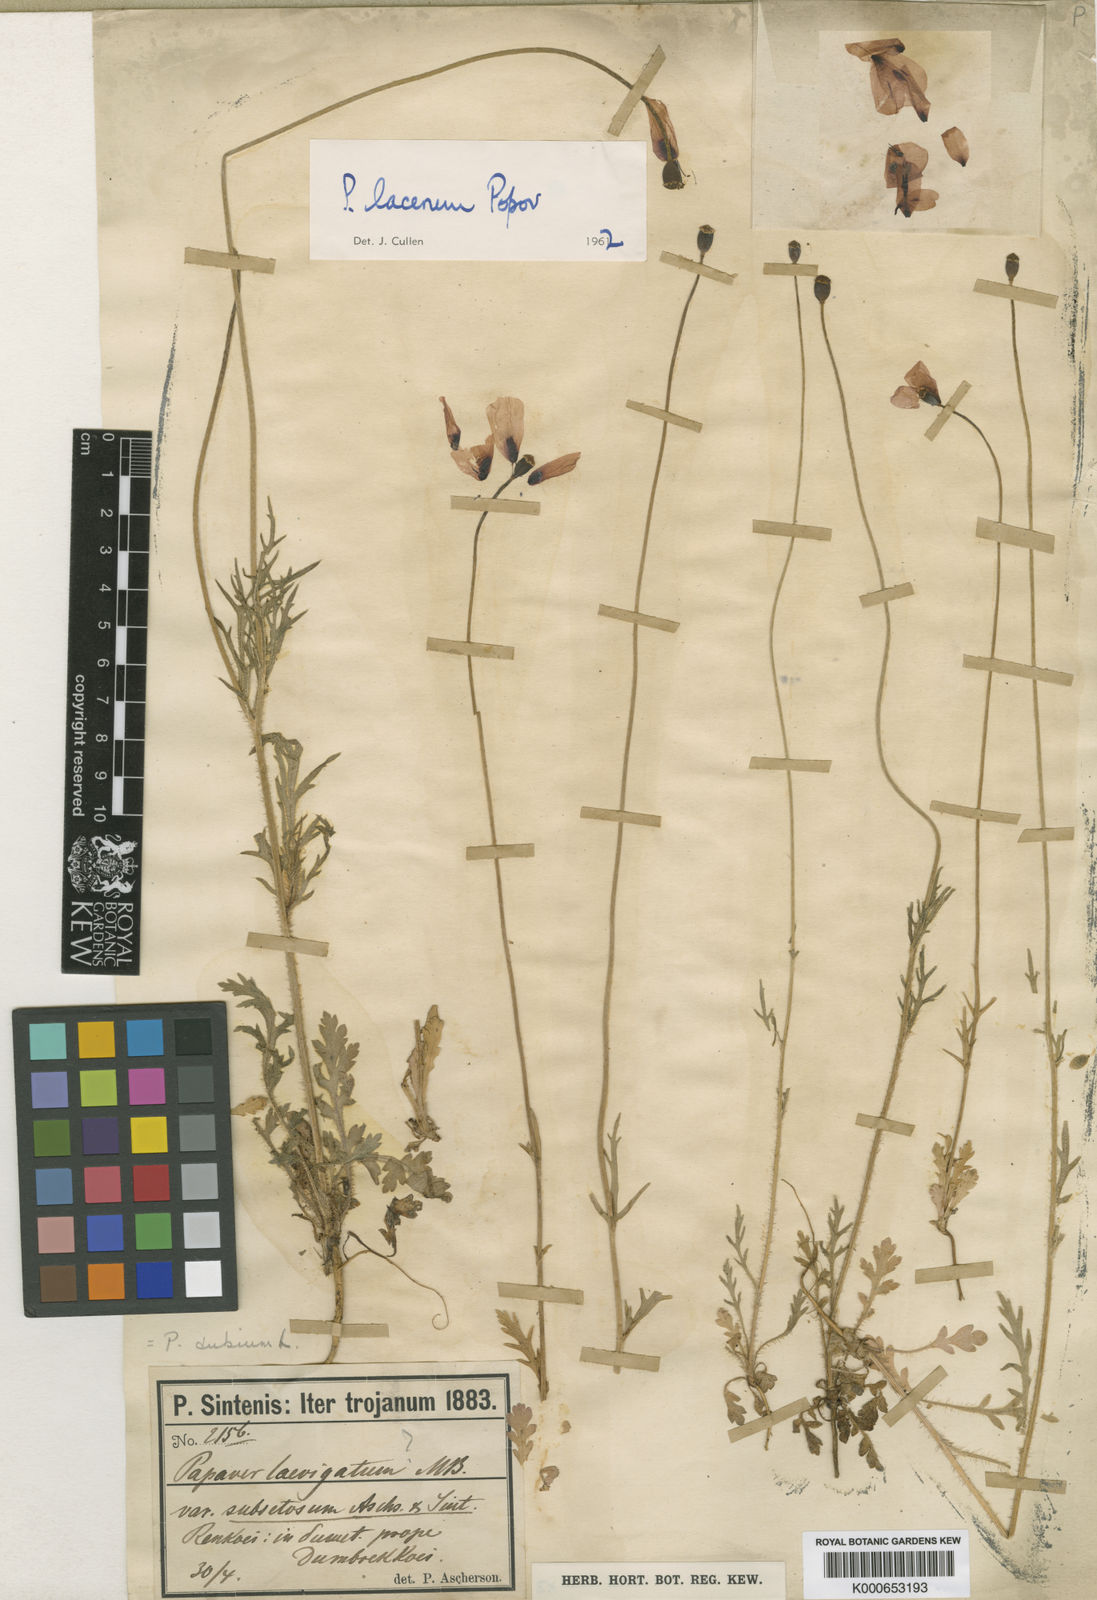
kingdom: Plantae
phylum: Tracheophyta
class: Magnoliopsida
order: Ranunculales
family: Papaveraceae
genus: Papaver
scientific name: Papaver laevigatum
